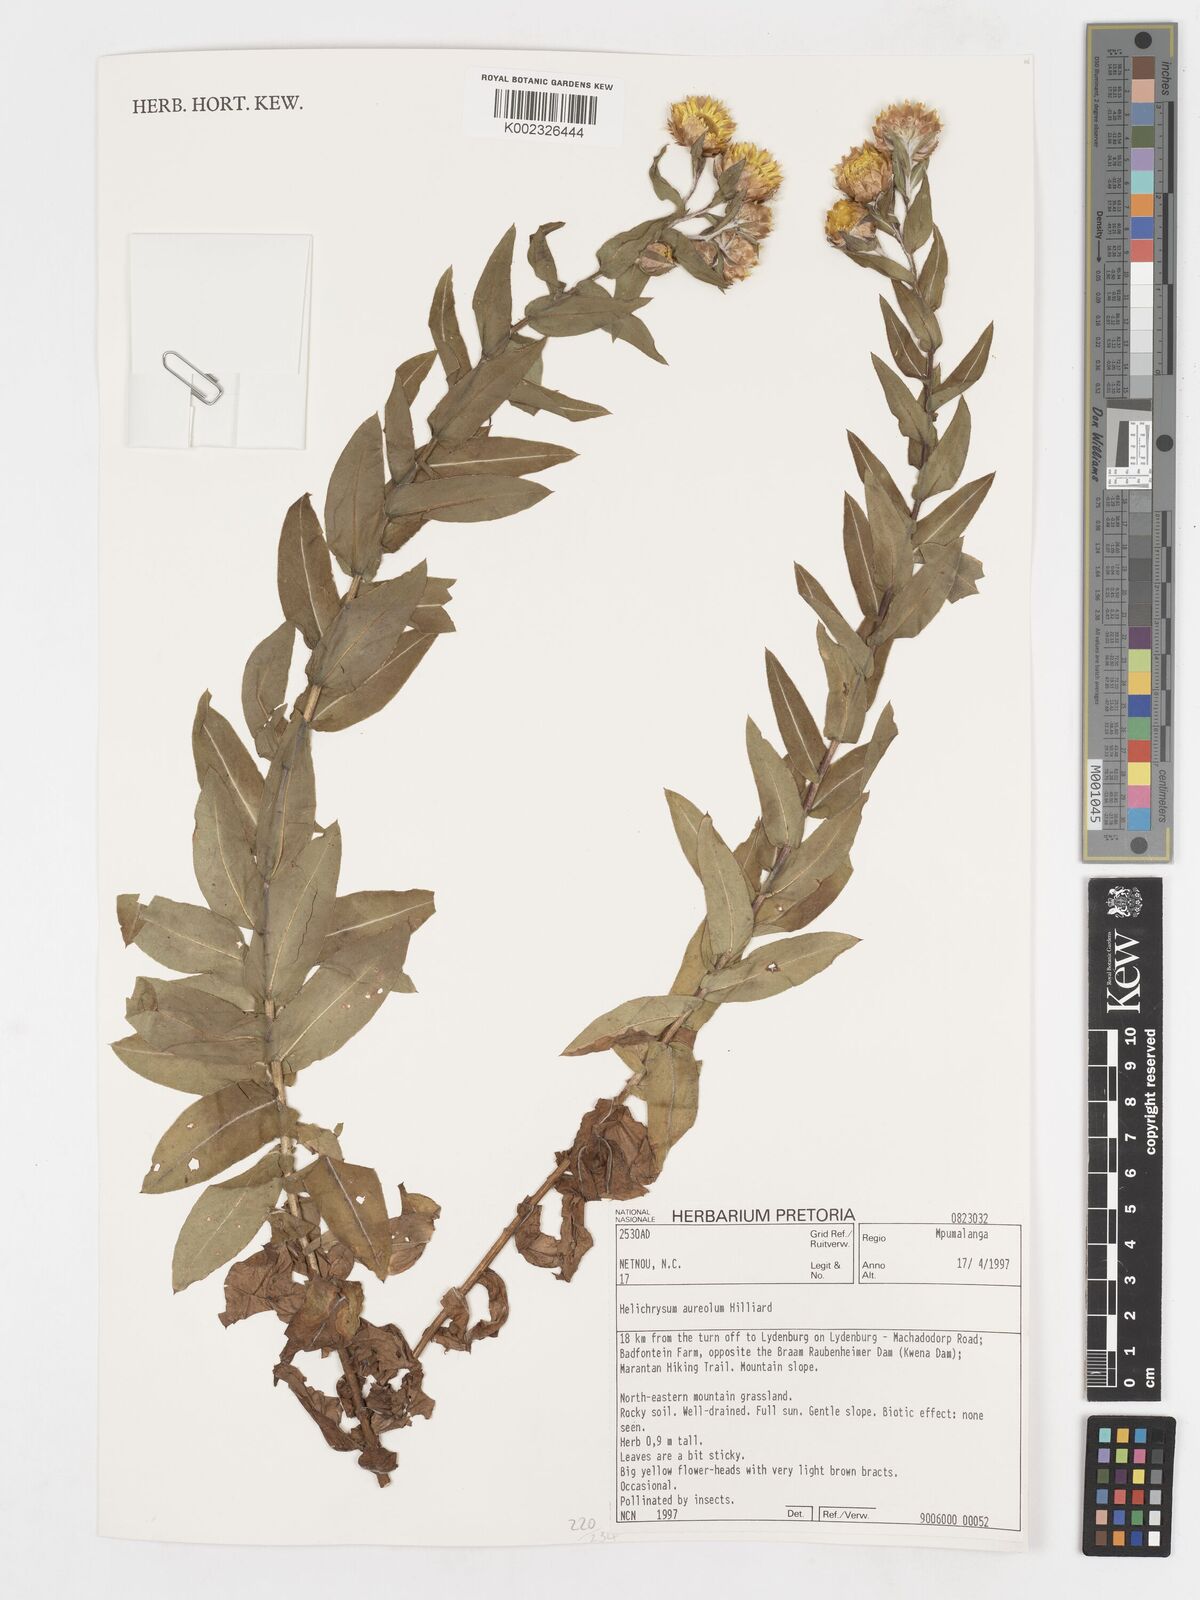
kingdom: Plantae
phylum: Tracheophyta
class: Magnoliopsida
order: Asterales
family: Asteraceae
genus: Helichrysum
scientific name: Helichrysum aureolum
